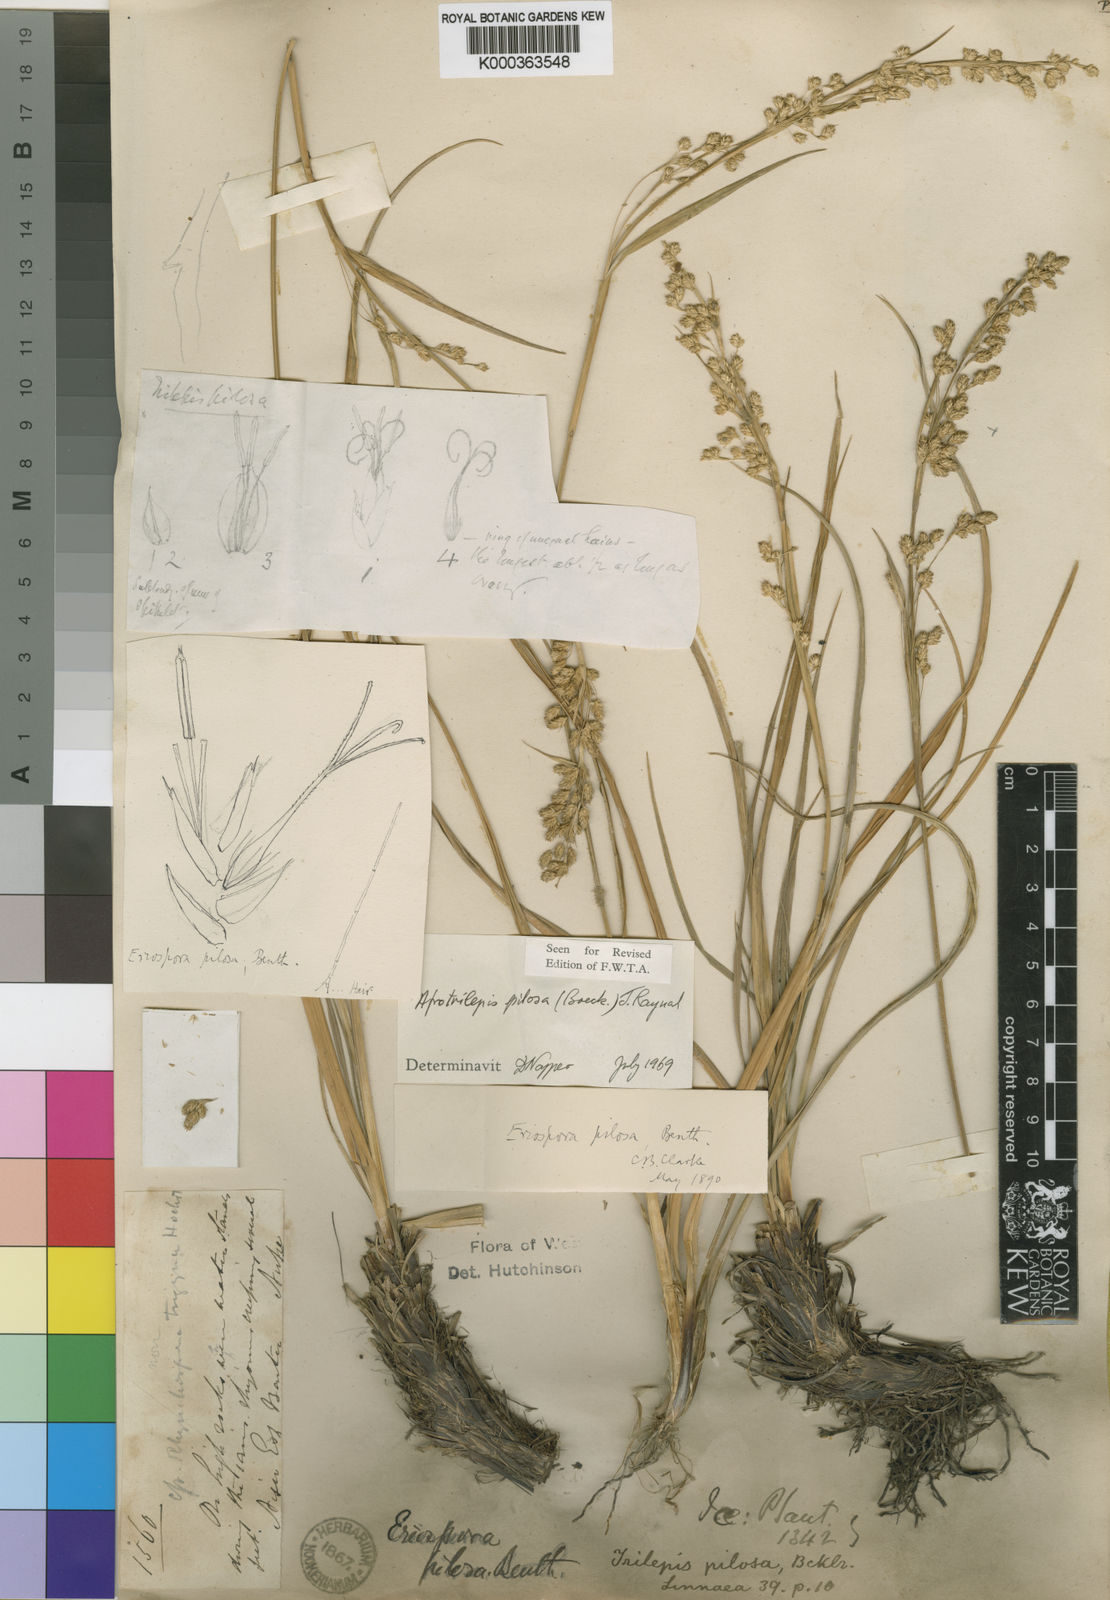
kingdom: Plantae
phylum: Tracheophyta
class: Liliopsida
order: Poales
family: Cyperaceae
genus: Afrotrilepis
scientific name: Afrotrilepis pilosa
